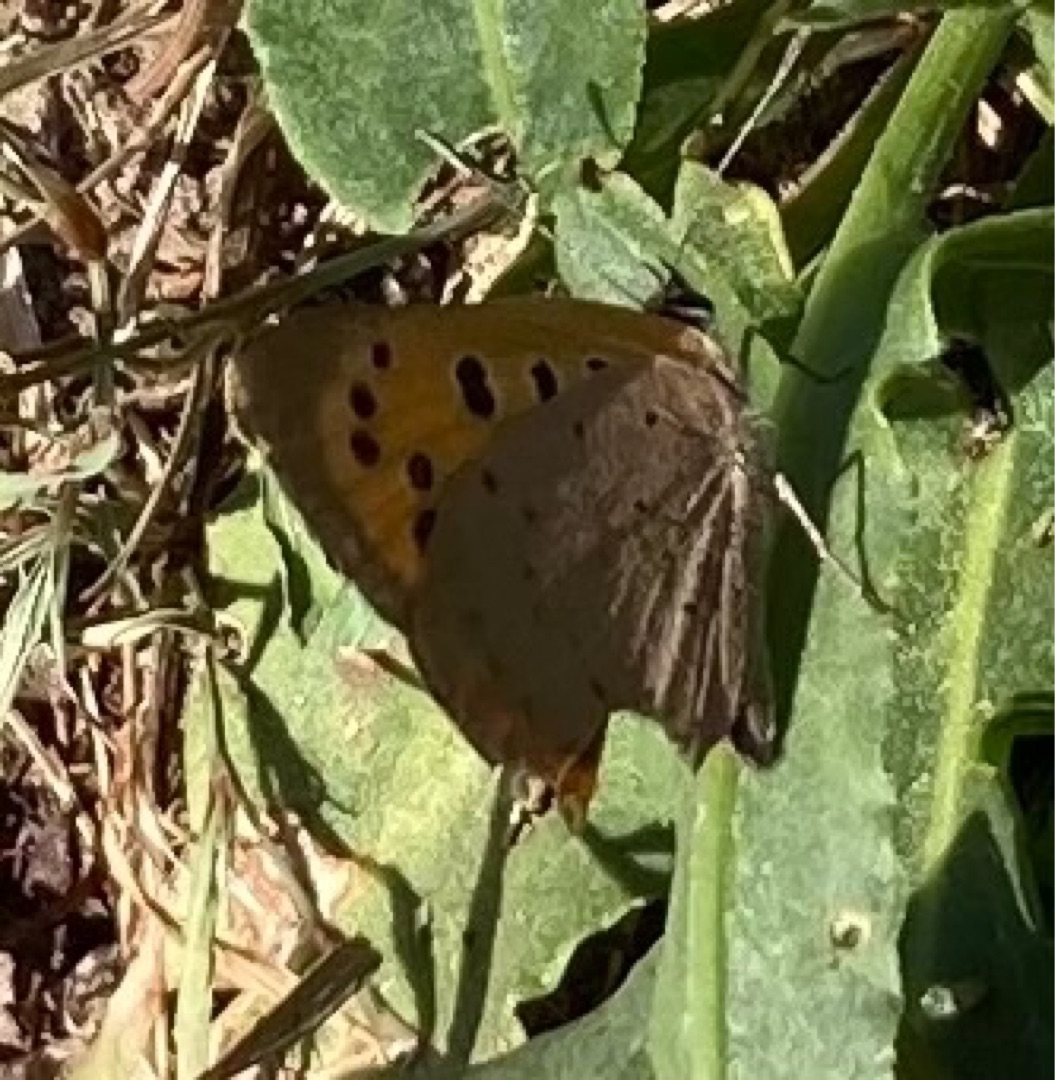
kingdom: Animalia
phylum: Arthropoda
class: Insecta
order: Lepidoptera
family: Lycaenidae
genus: Lycaena
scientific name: Lycaena phlaeas
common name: Lille ildfugl
